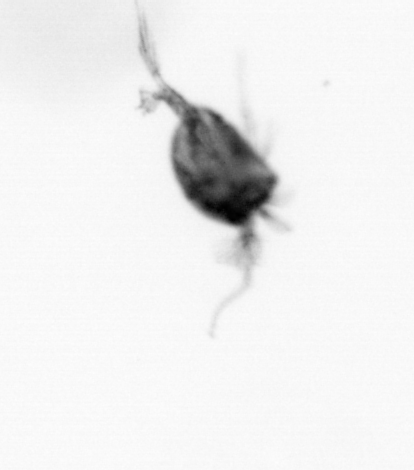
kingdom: Animalia
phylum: Arthropoda
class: Copepoda
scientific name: Copepoda
